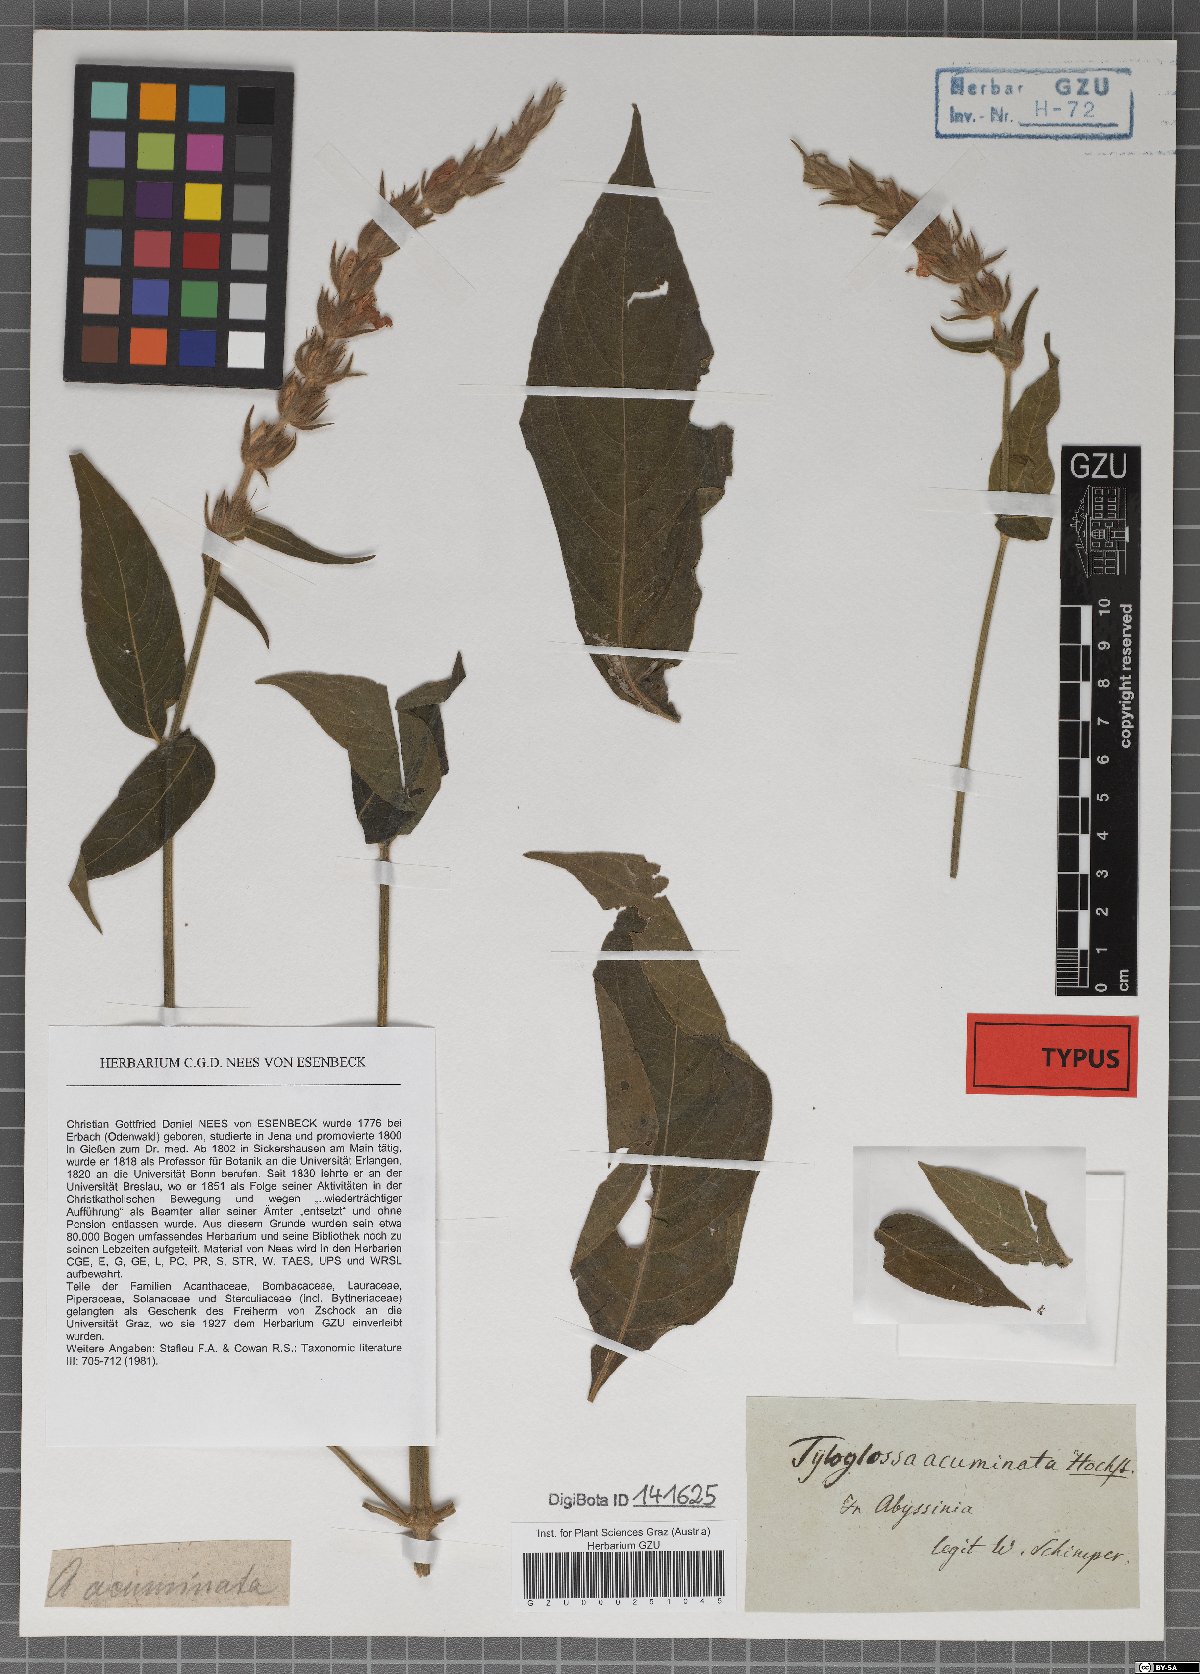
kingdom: Plantae
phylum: Tracheophyta
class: Magnoliopsida
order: Lamiales
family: Acanthaceae
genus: Justicia
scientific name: Justicia flava
